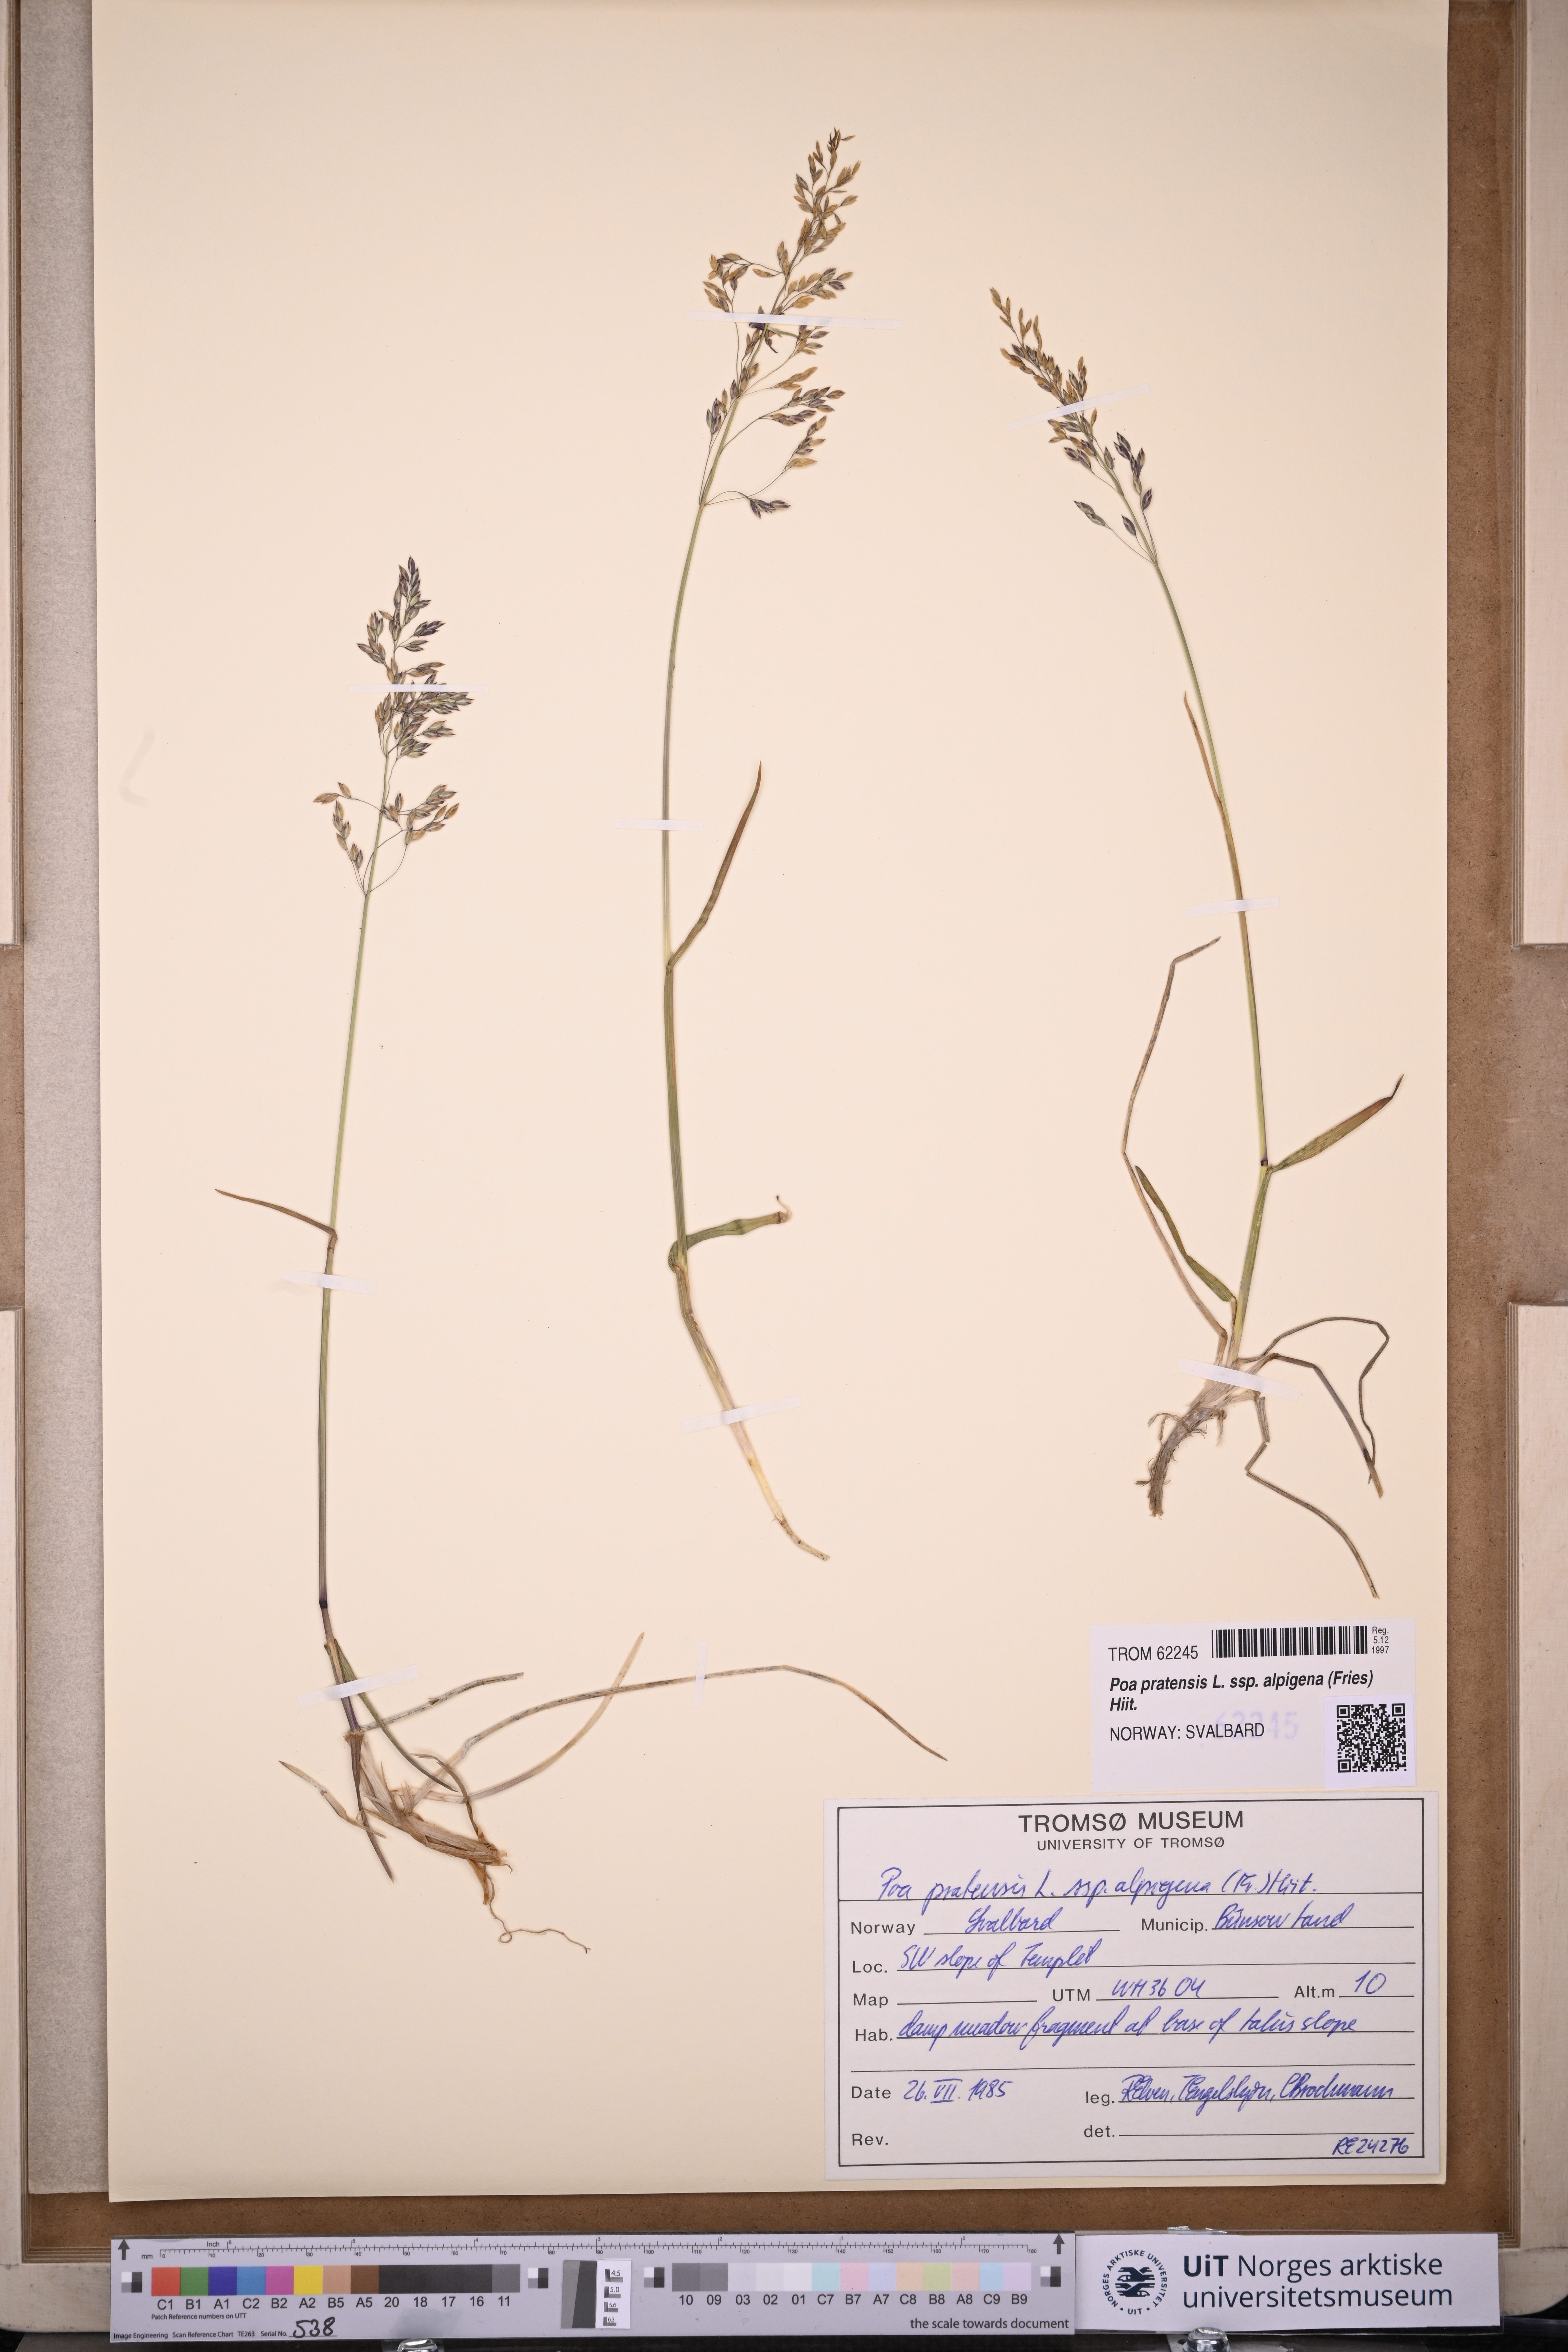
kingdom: Plantae
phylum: Tracheophyta
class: Liliopsida
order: Poales
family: Poaceae
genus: Poa
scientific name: Poa alpigena
